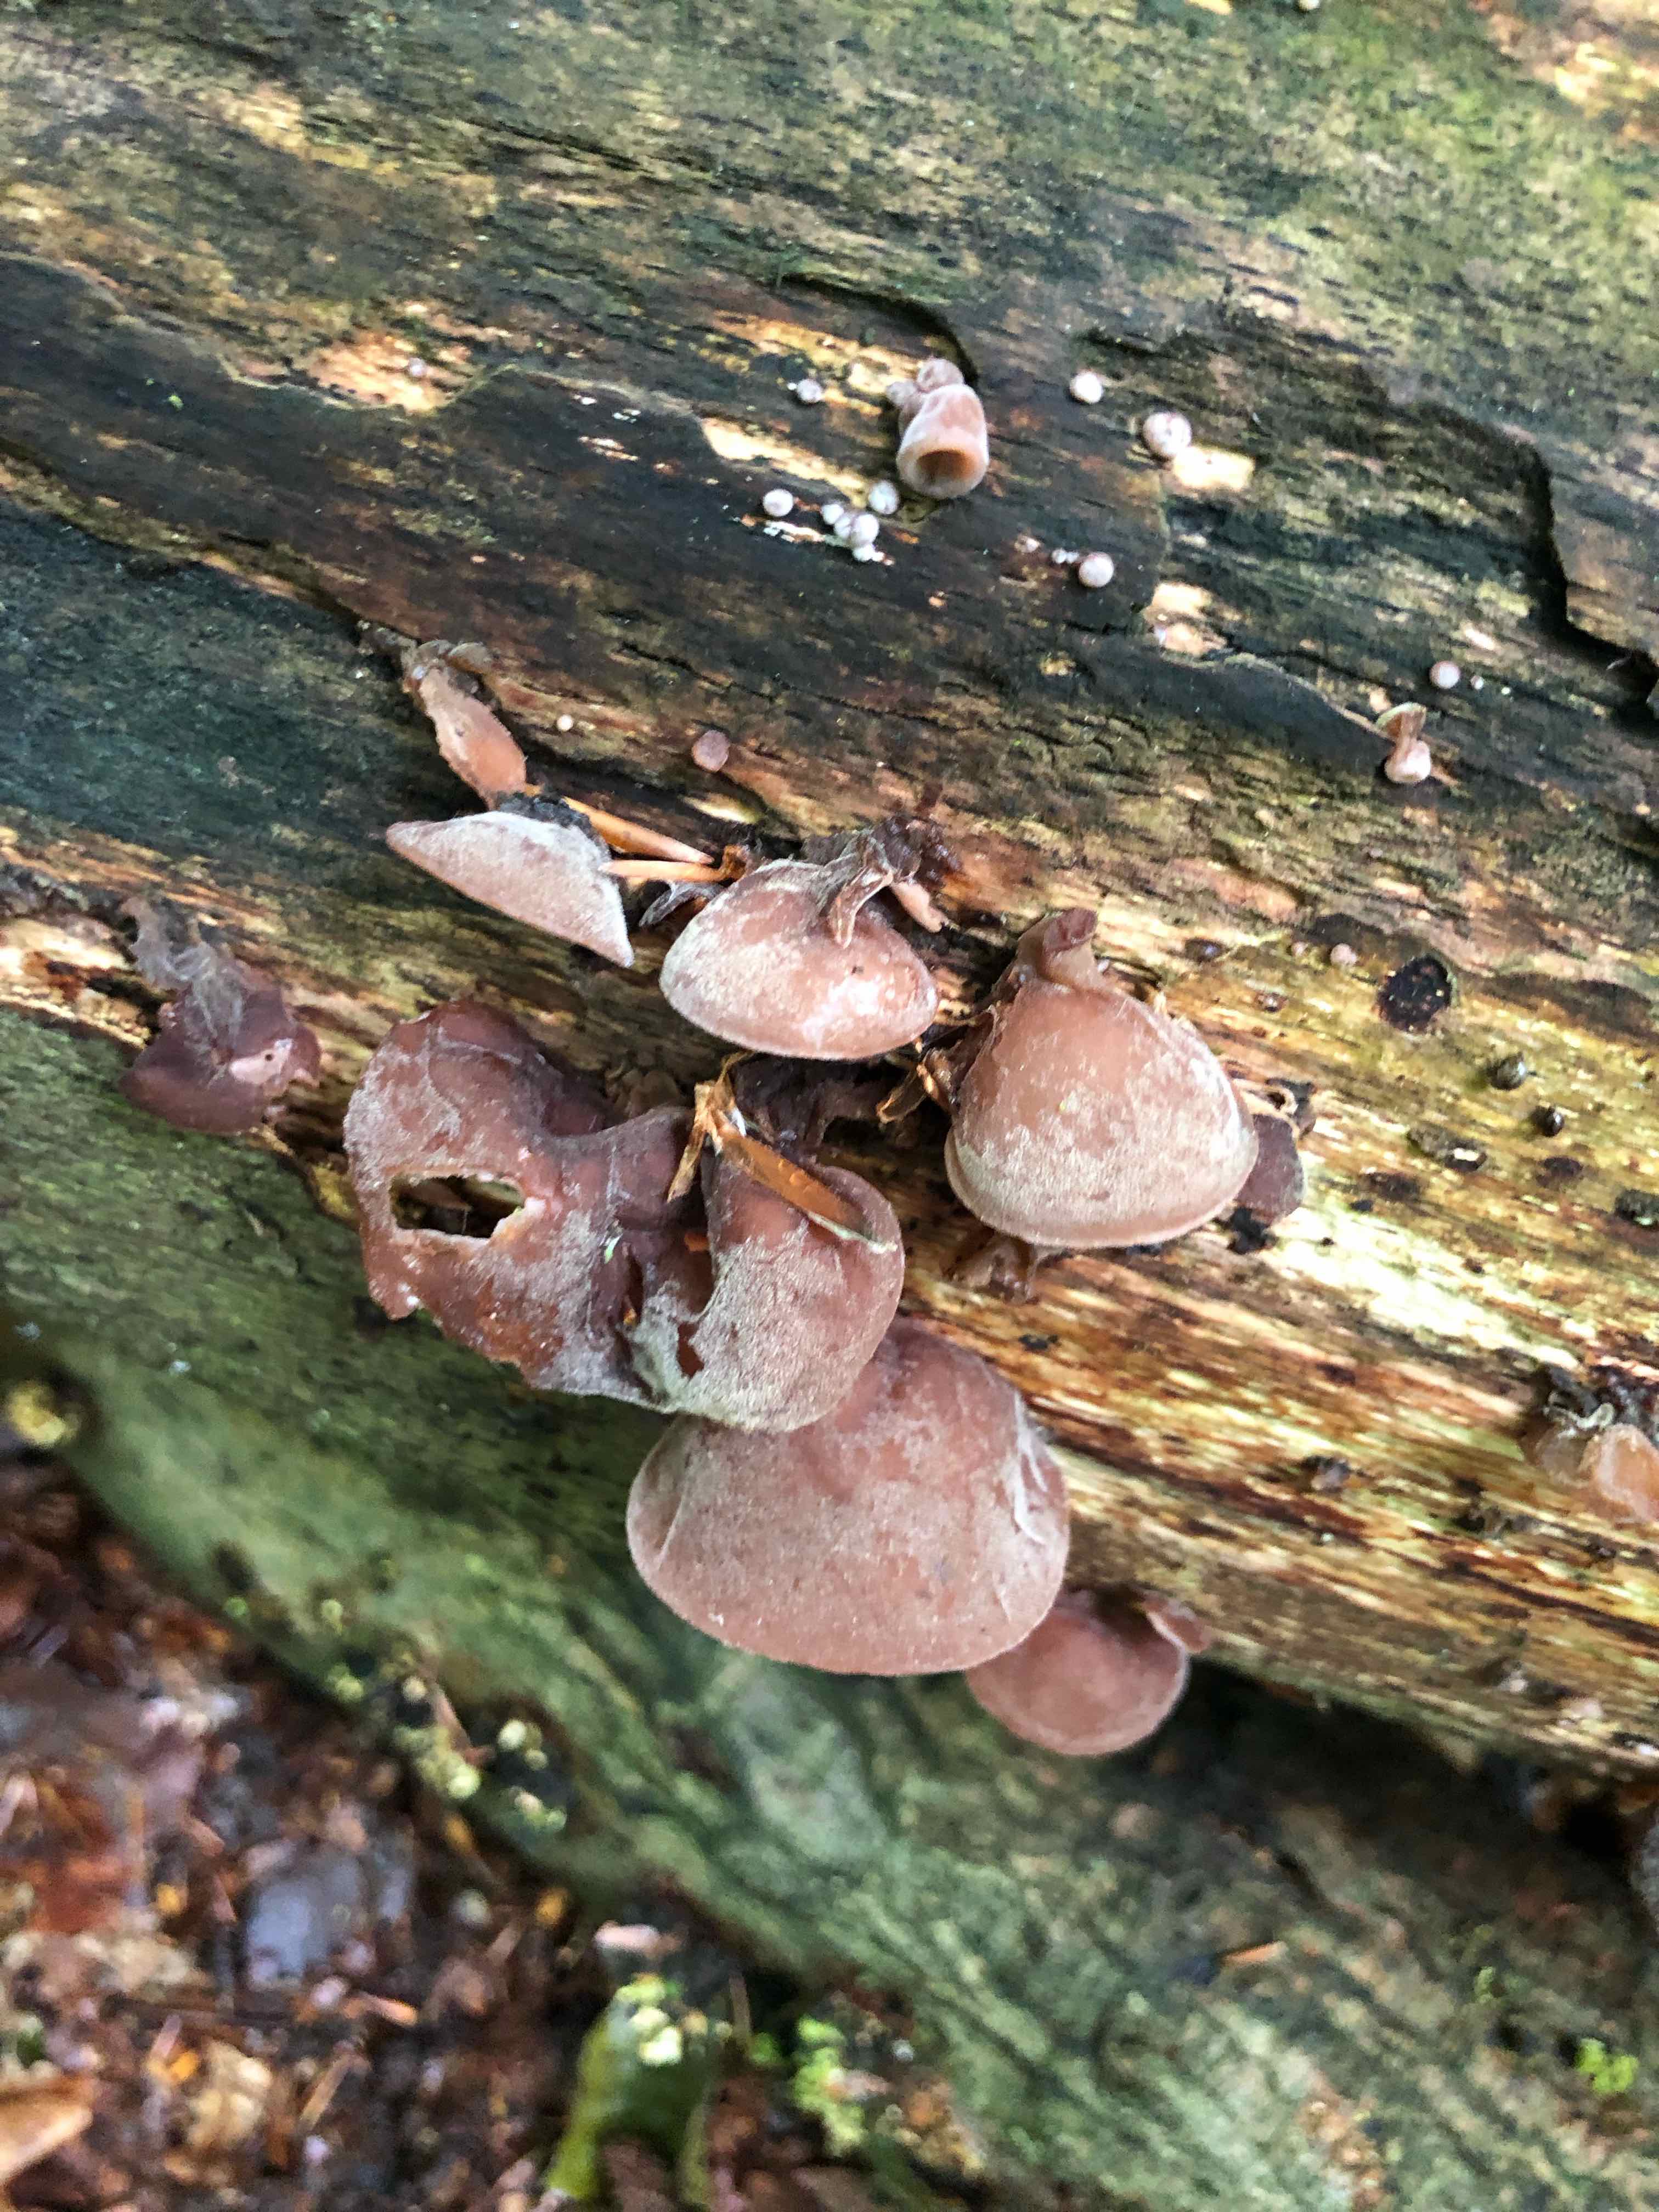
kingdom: Fungi
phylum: Basidiomycota
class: Agaricomycetes
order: Auriculariales
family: Auriculariaceae
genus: Auricularia
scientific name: Auricularia auricula-judae
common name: almindelig judasøre
